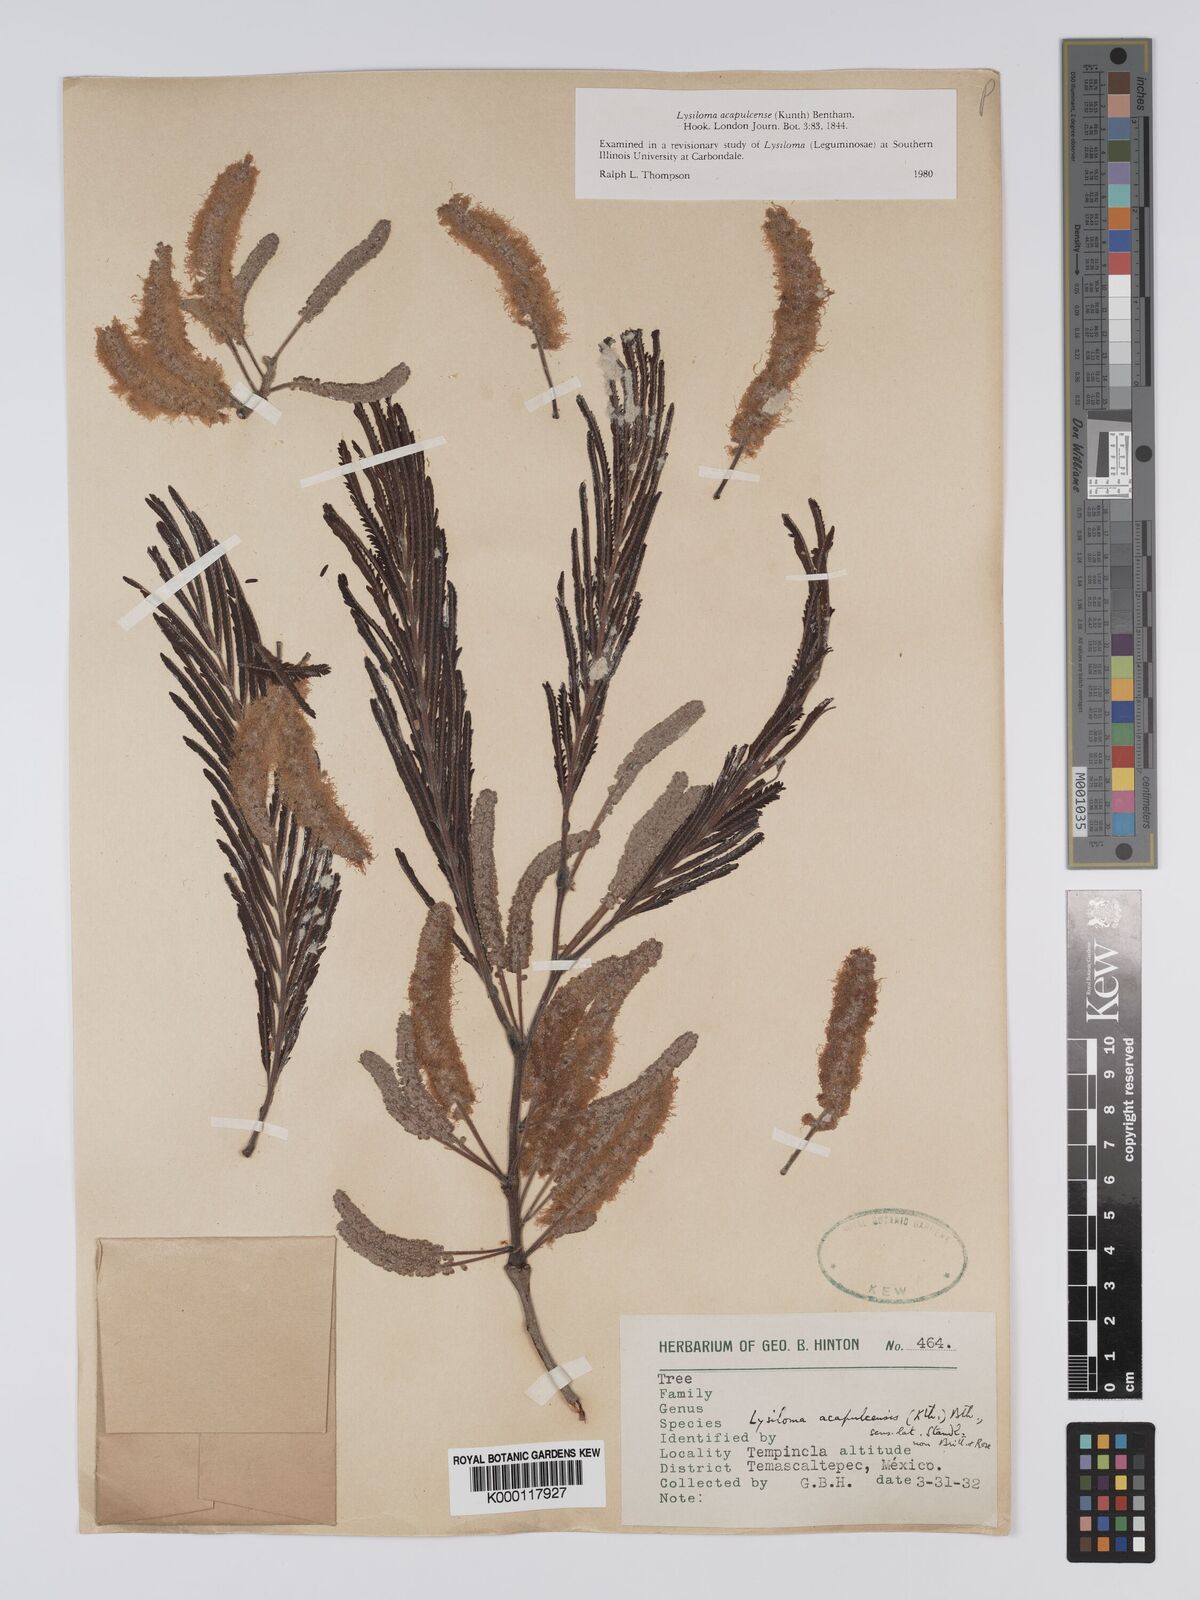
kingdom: Plantae
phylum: Tracheophyta
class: Magnoliopsida
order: Fabales
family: Fabaceae
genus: Lysiloma
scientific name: Lysiloma acapulcense
